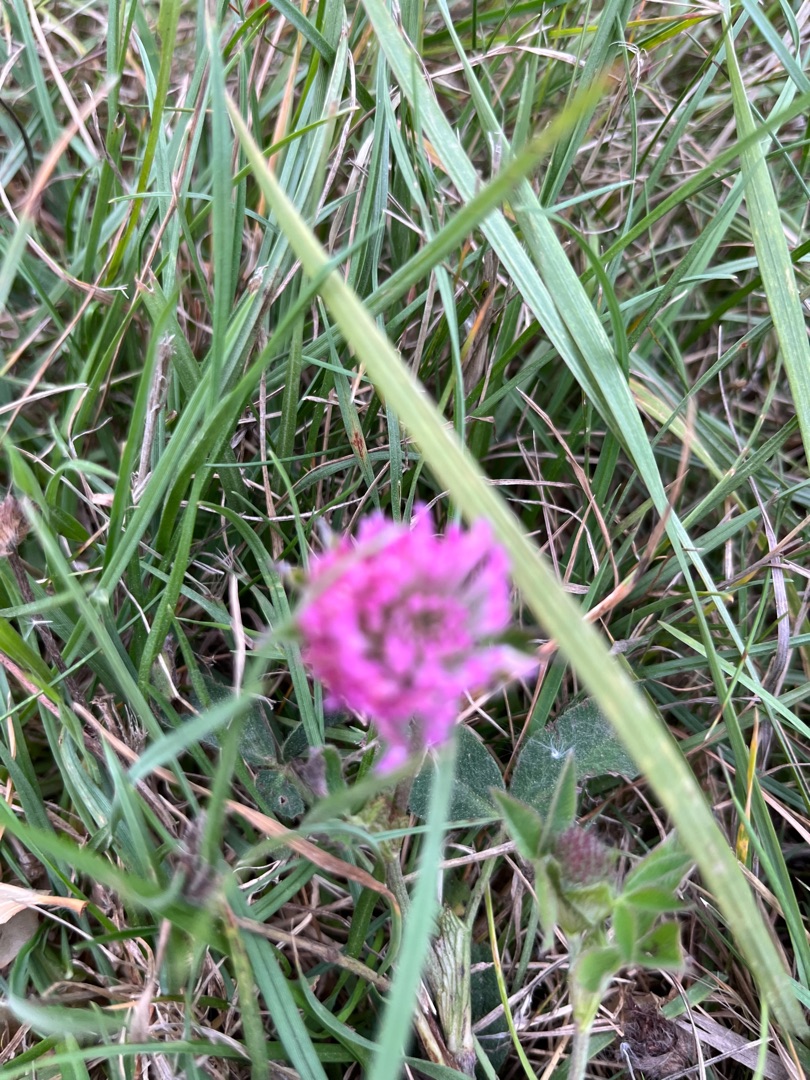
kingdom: Plantae
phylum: Tracheophyta
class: Magnoliopsida
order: Fabales
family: Fabaceae
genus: Trifolium
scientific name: Trifolium pratense
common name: Rød-kløver
